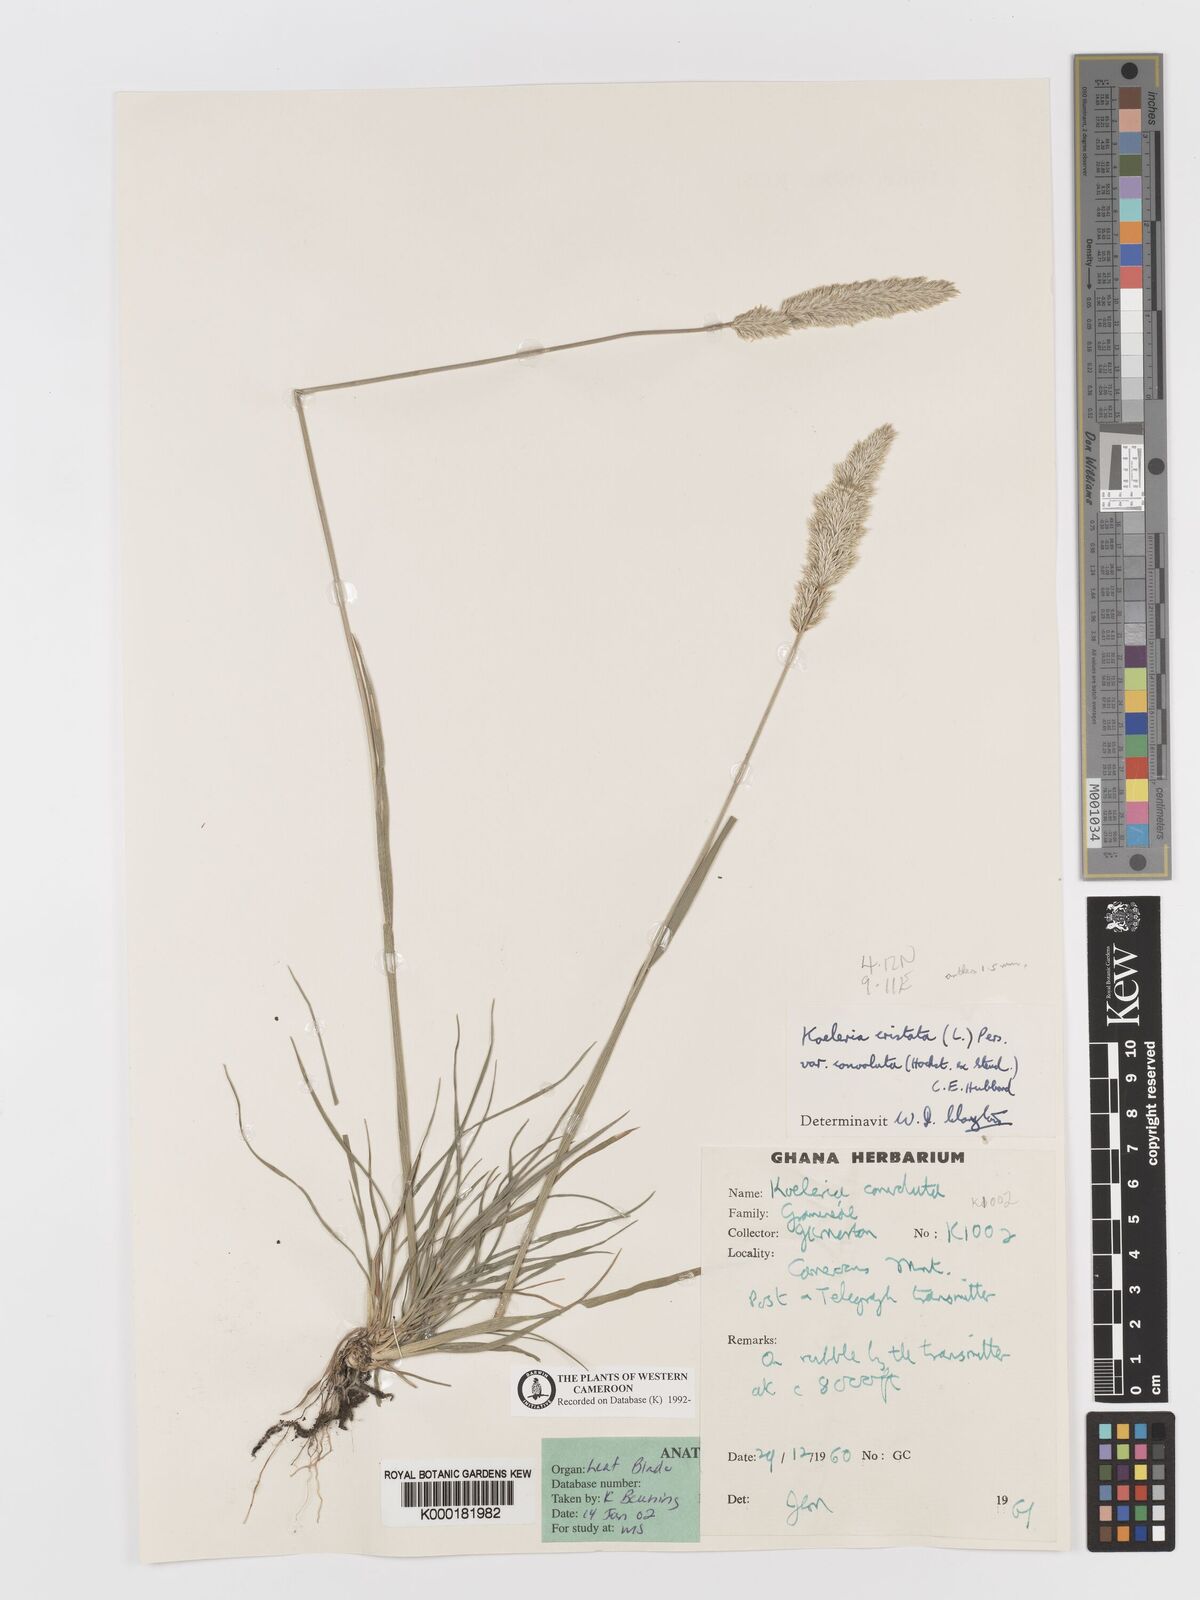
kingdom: Plantae
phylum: Tracheophyta
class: Liliopsida
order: Poales
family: Poaceae
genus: Koeleria
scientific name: Koeleria capensis
